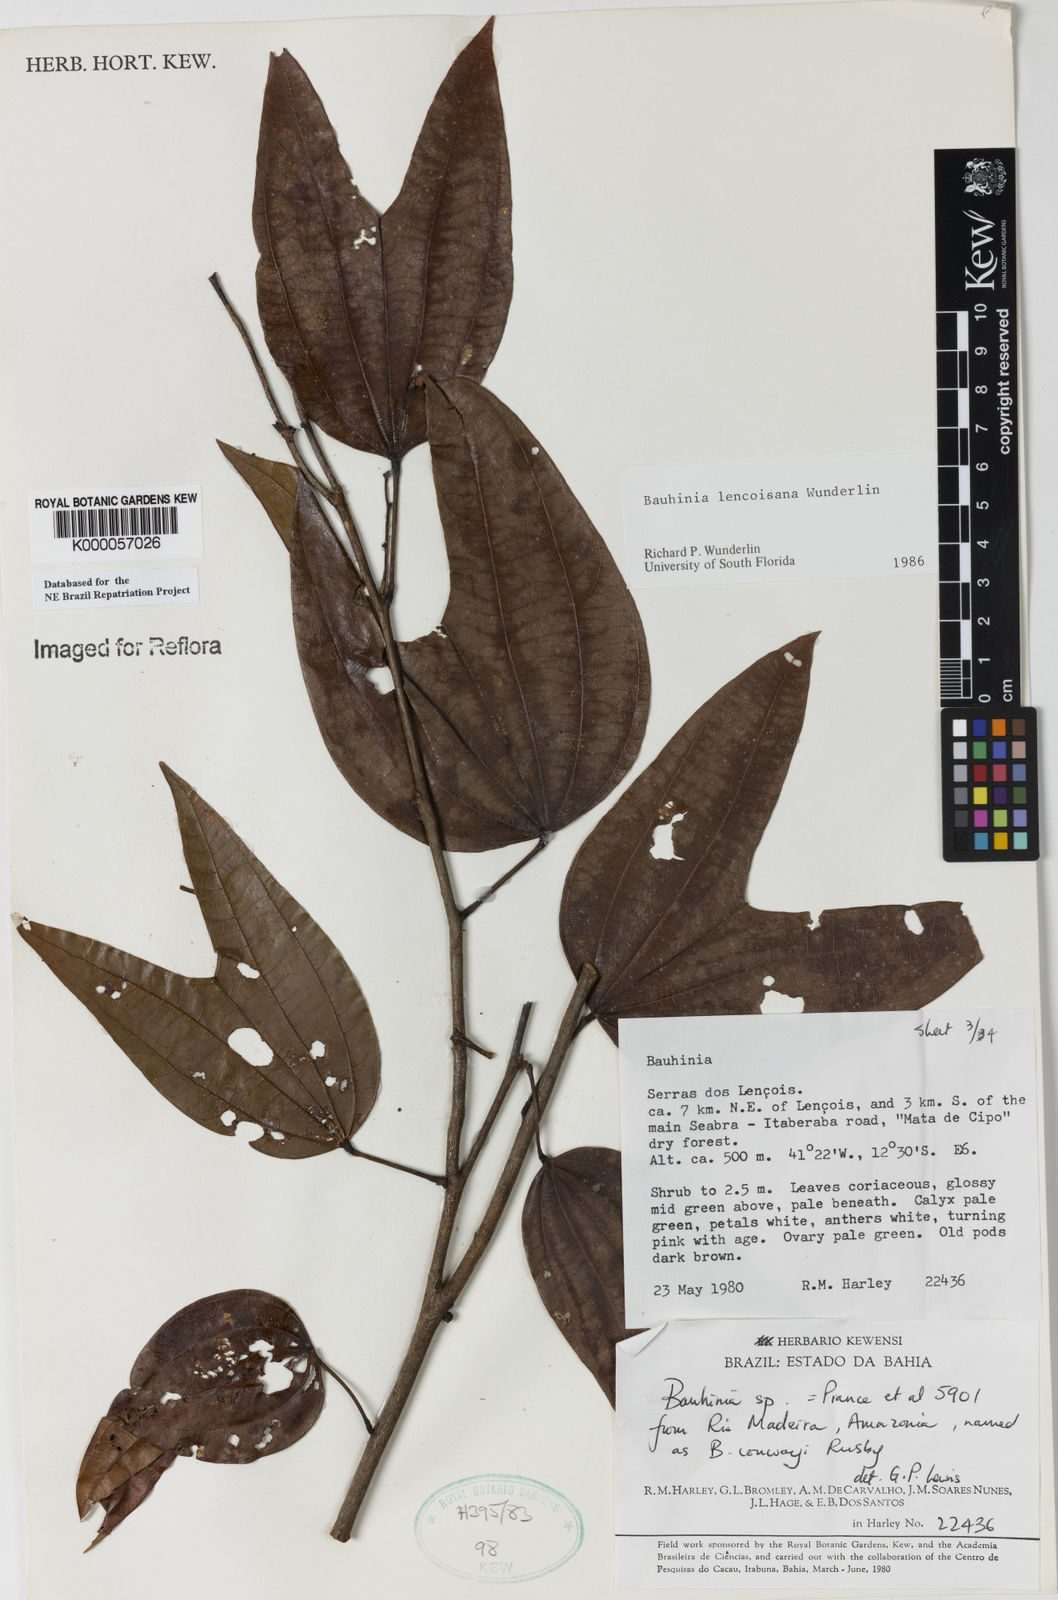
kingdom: Plantae
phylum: Tracheophyta
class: Magnoliopsida
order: Fabales
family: Fabaceae
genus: Bauhinia
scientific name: Bauhinia
